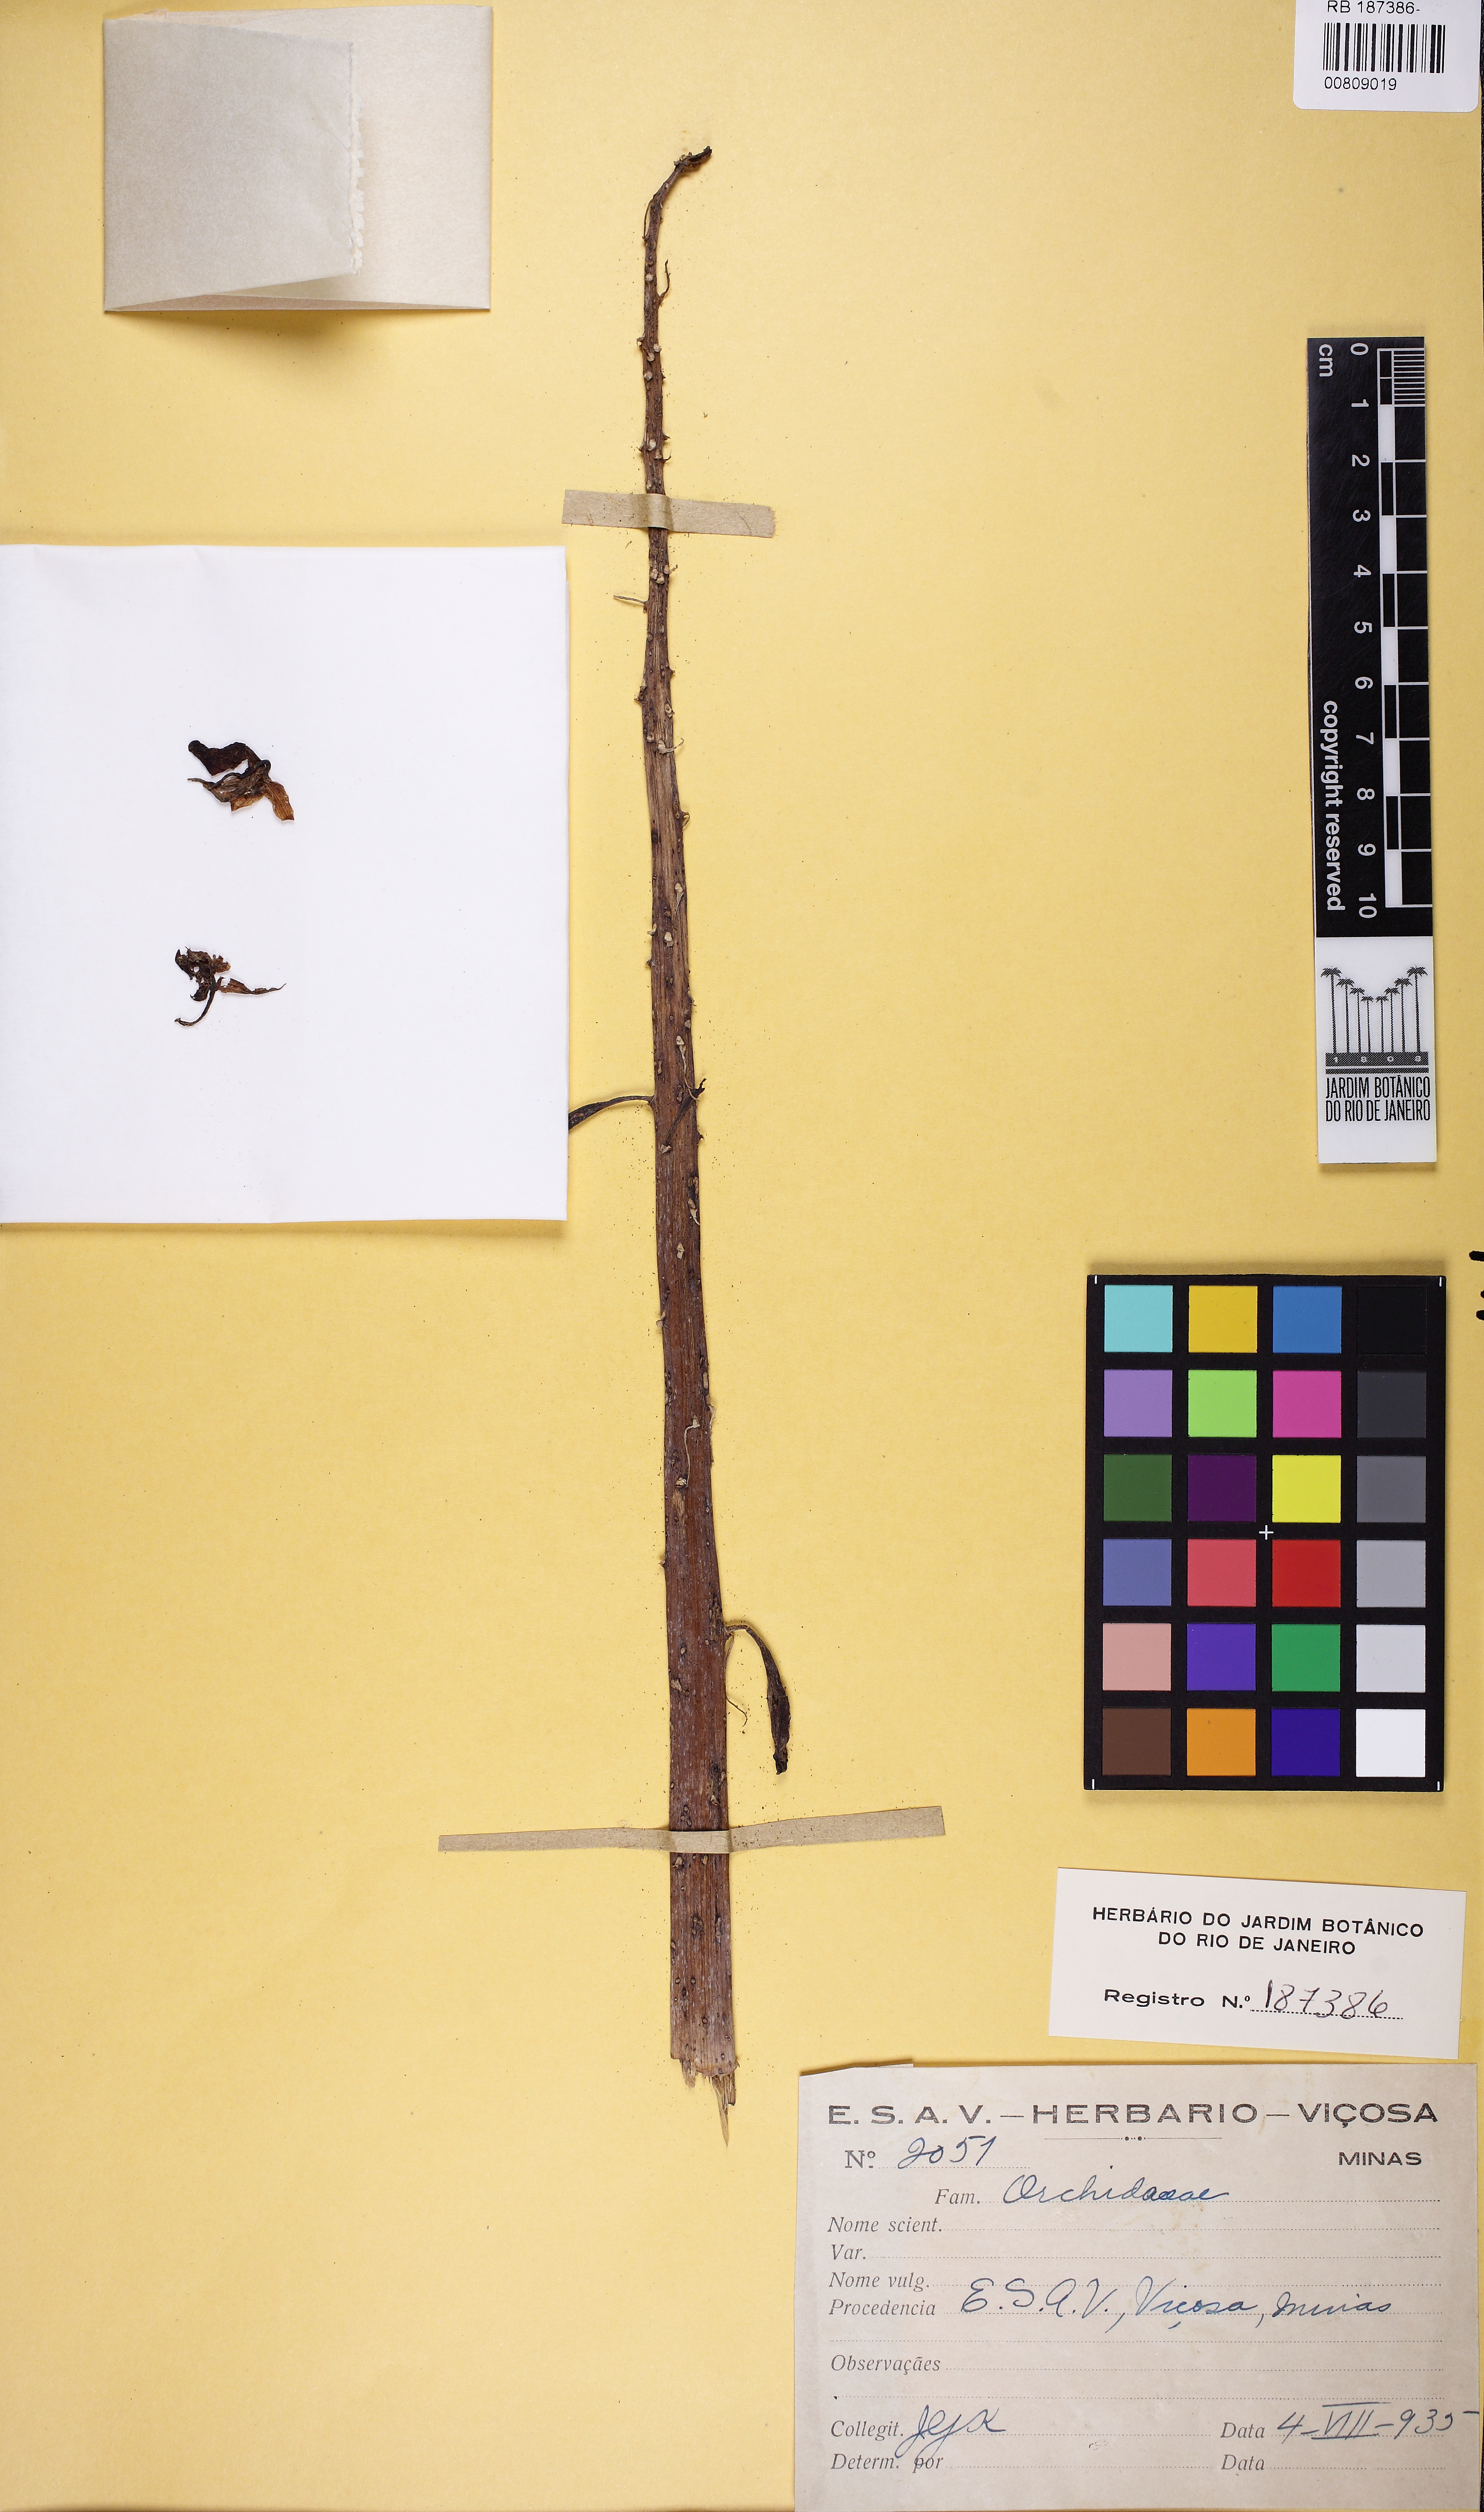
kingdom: Plantae
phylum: Tracheophyta
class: Liliopsida
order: Asparagales
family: Orchidaceae
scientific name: Orchidaceae
